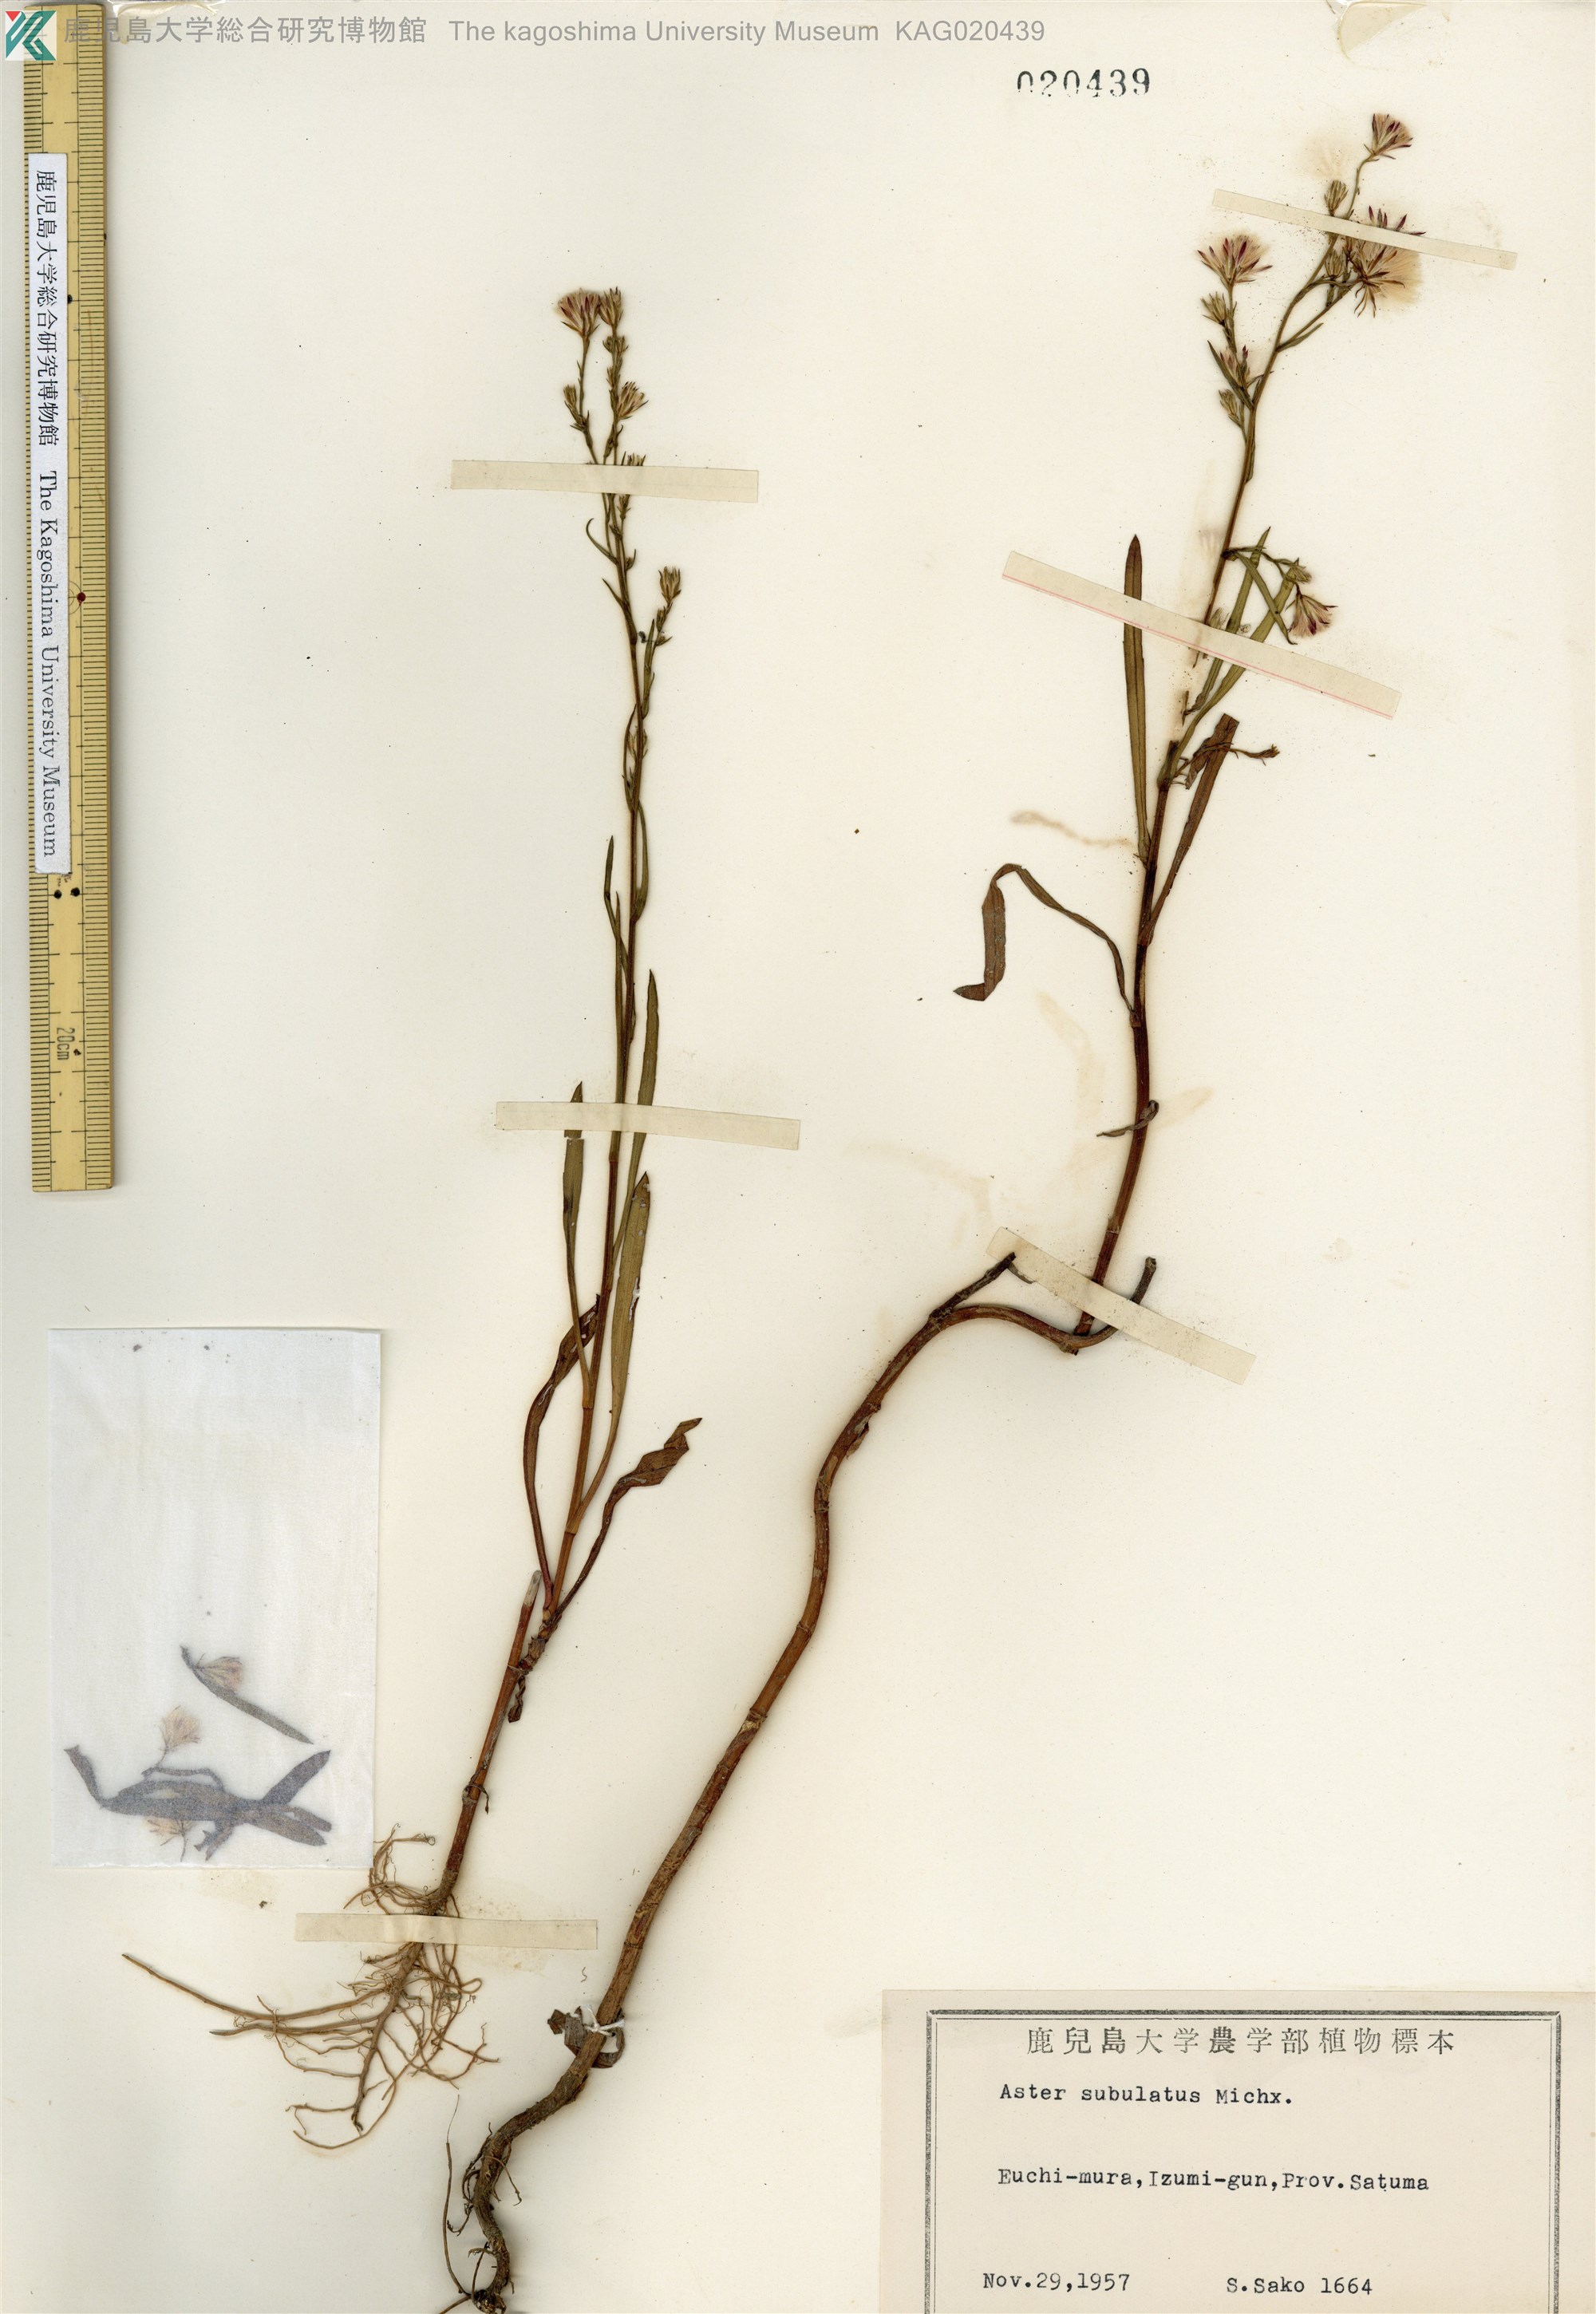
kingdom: Plantae
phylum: Tracheophyta
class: Magnoliopsida
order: Asterales
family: Asteraceae
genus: Symphyotrichum
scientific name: Symphyotrichum subulatum
